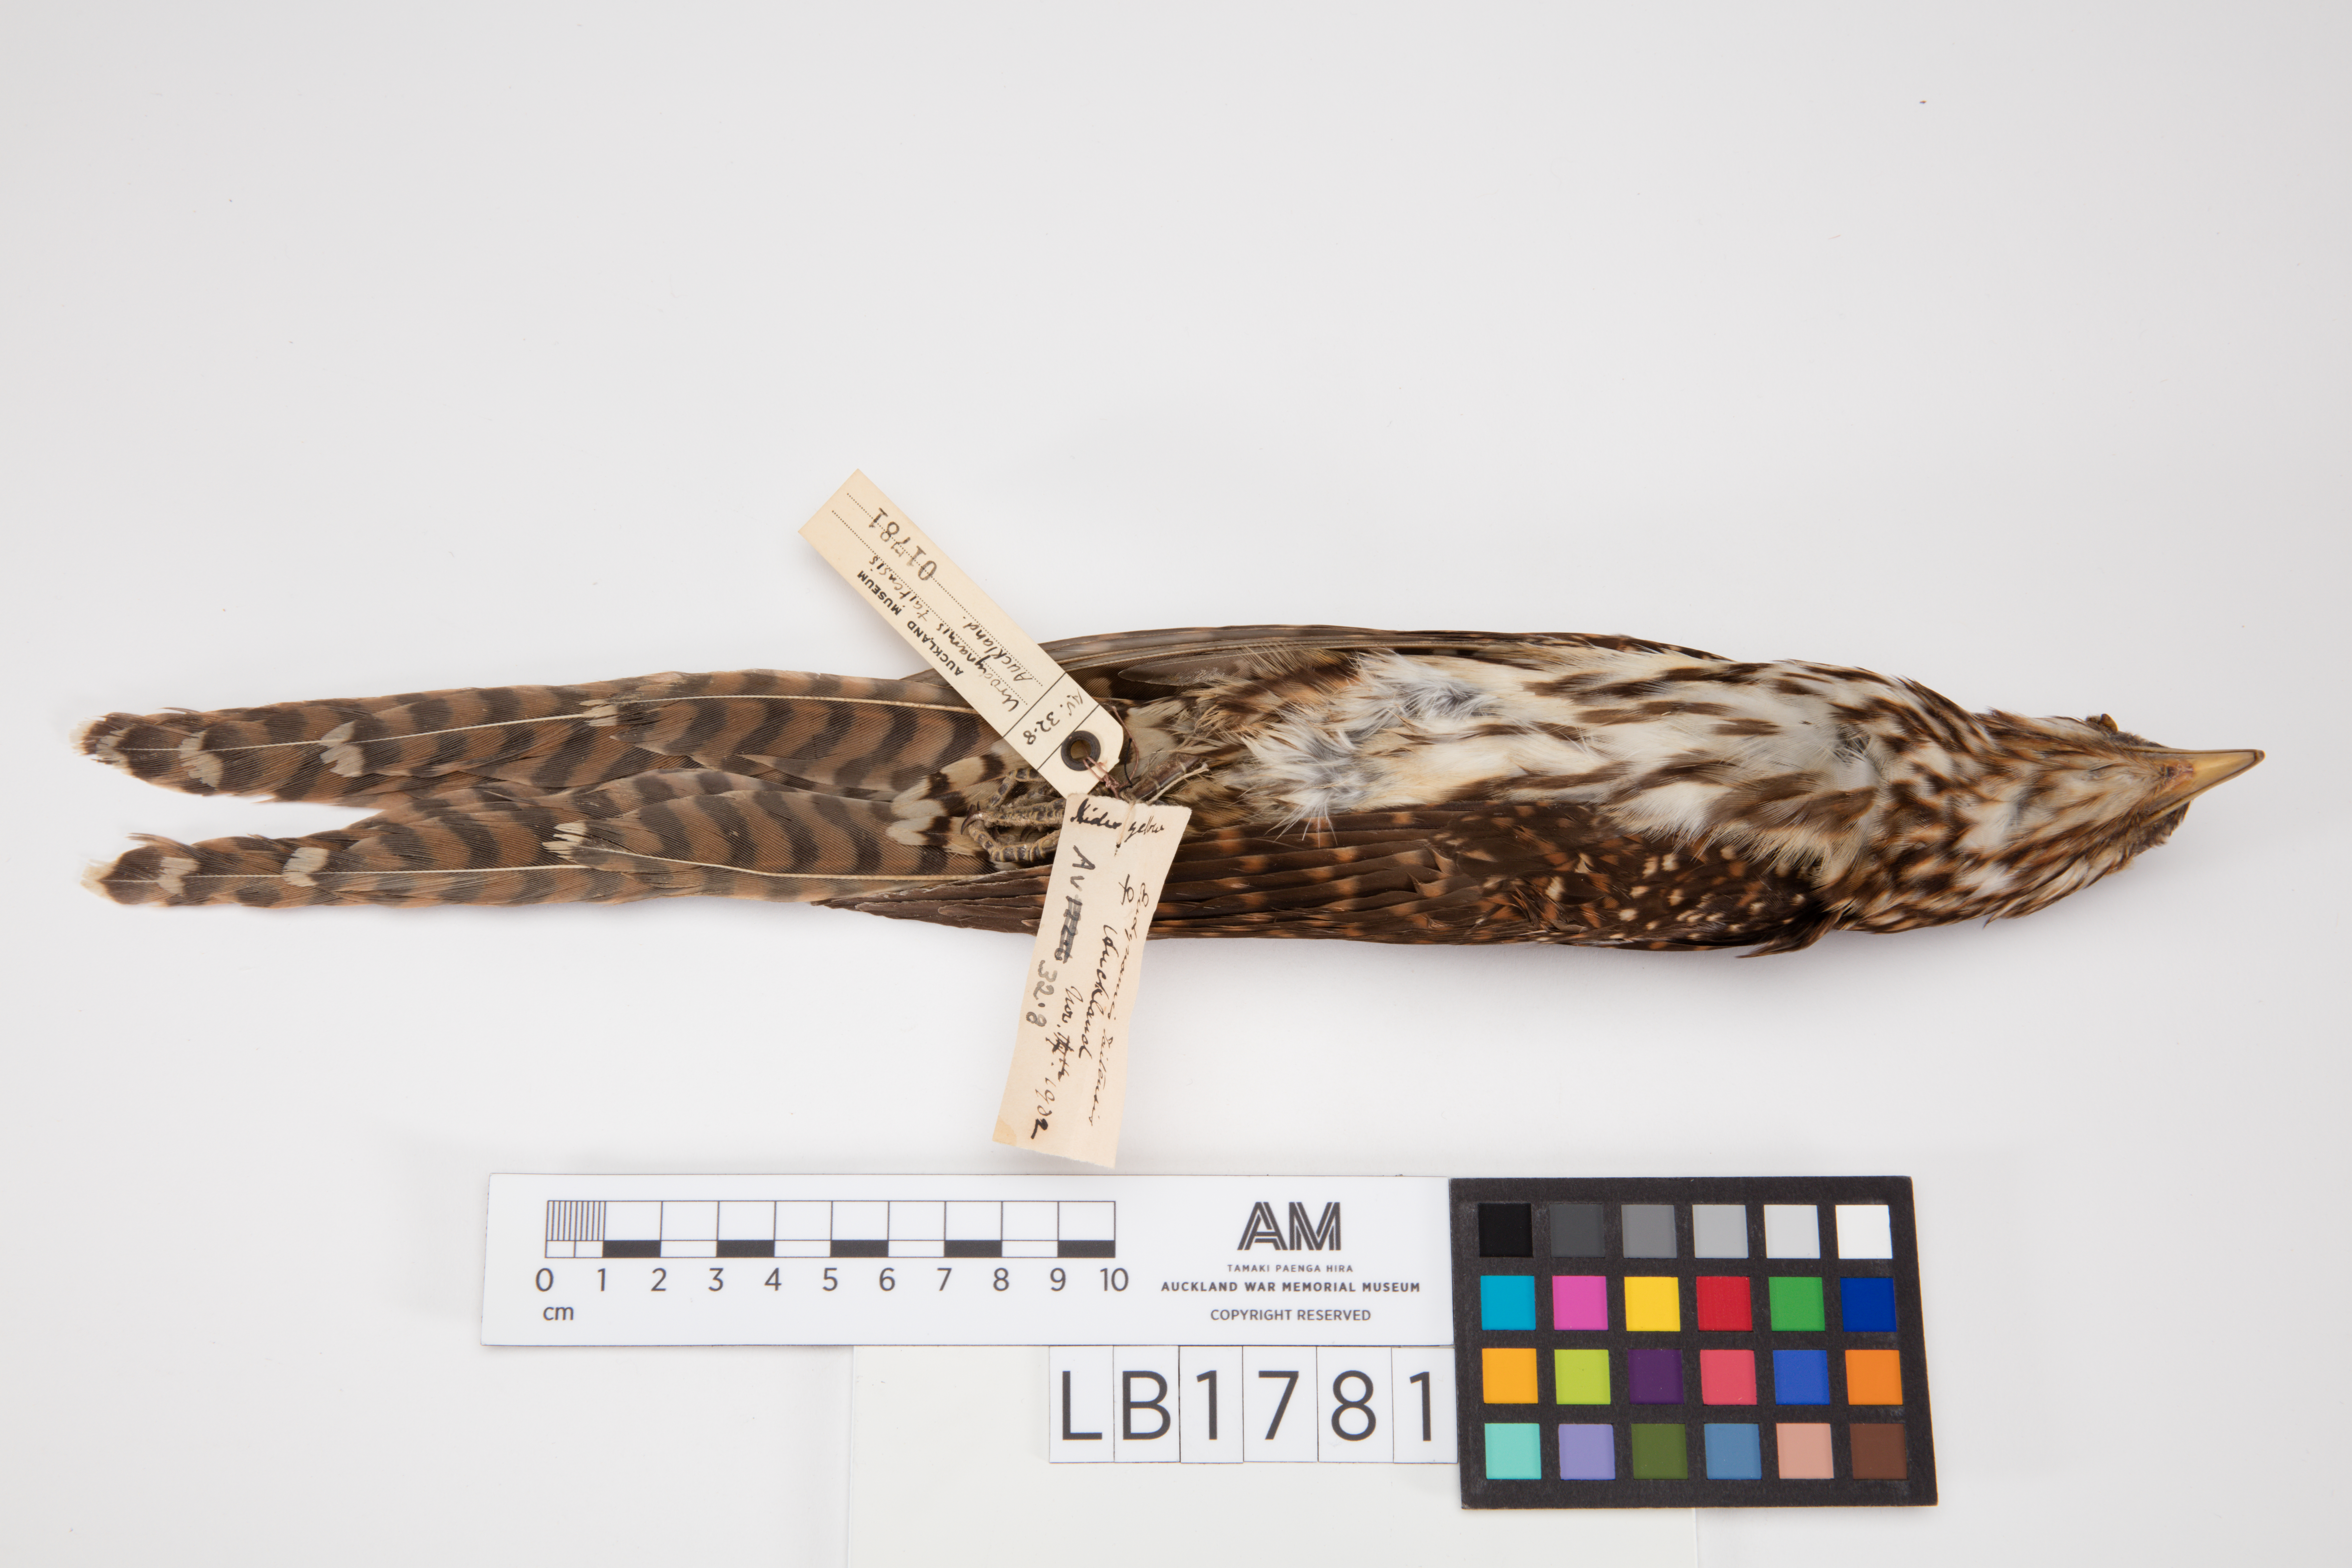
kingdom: Animalia
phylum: Chordata
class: Aves
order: Cuculiformes
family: Cuculidae
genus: Urodynamis
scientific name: Urodynamis taitensis
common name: Long-tailed koel
